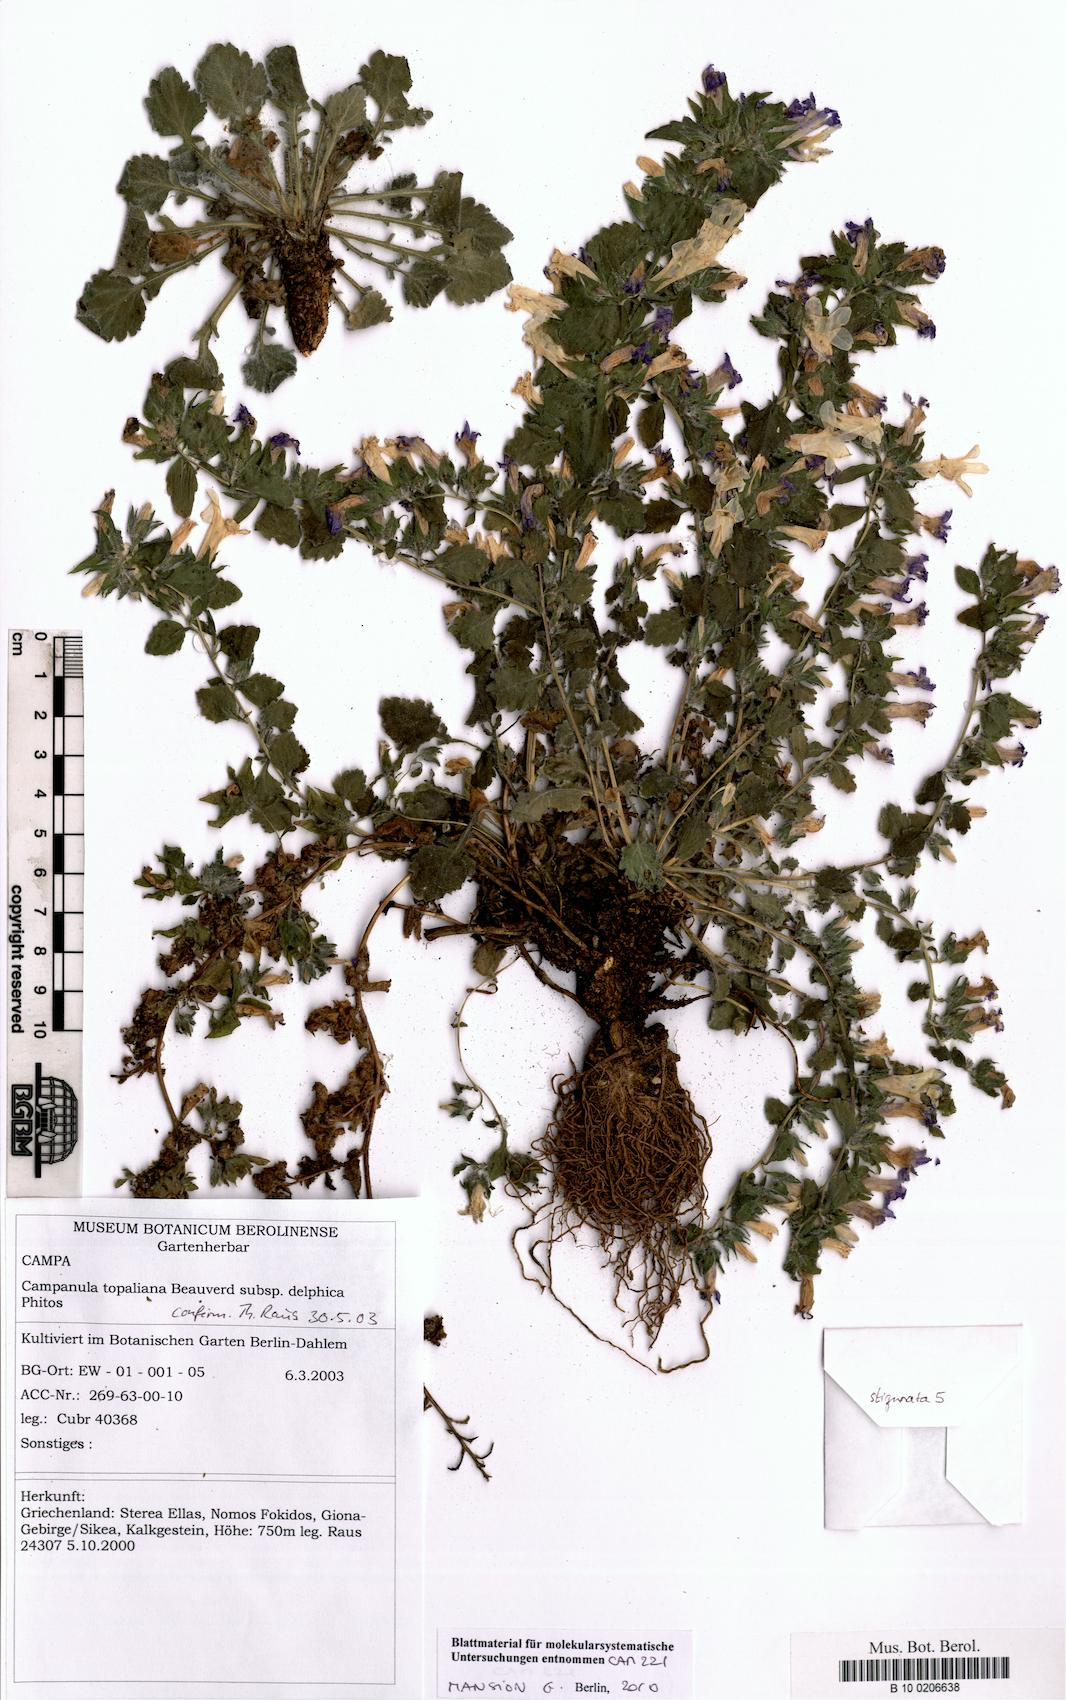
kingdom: Plantae
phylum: Tracheophyta
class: Magnoliopsida
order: Asterales
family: Campanulaceae
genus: Campanula
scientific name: Campanula topaliana
